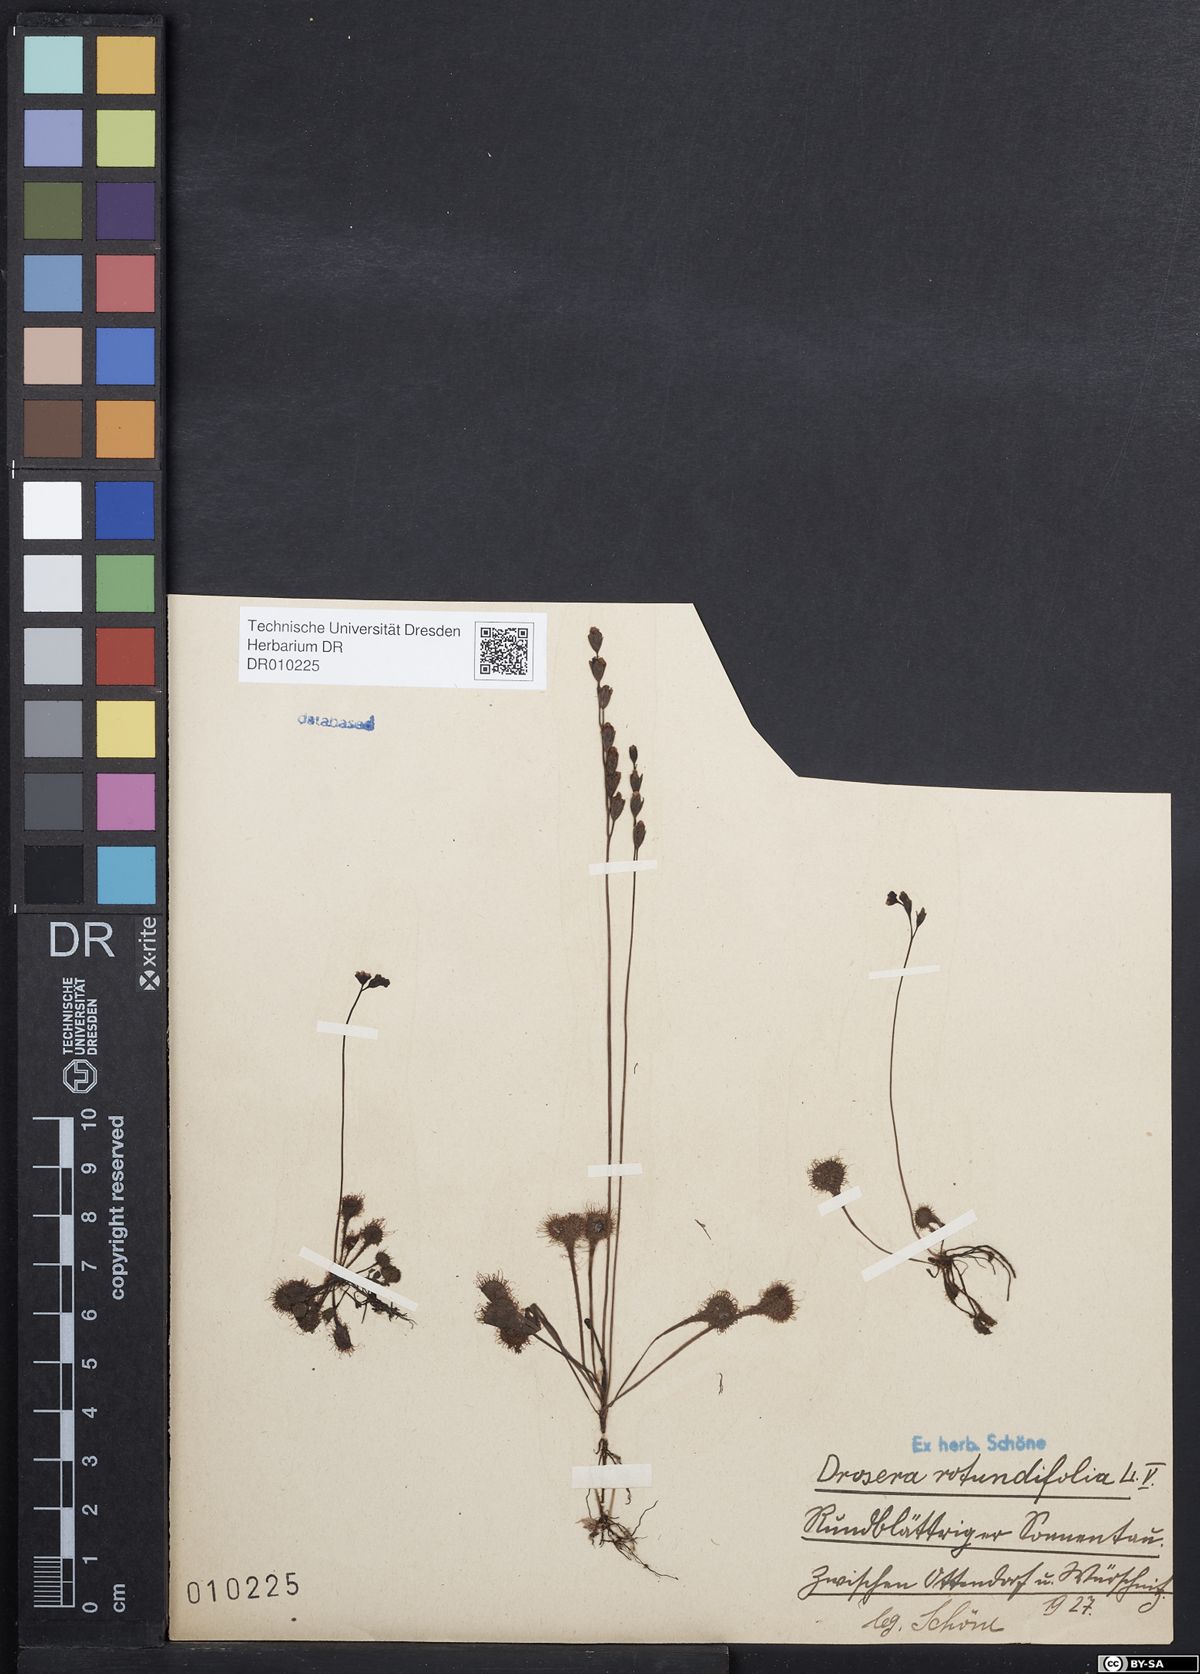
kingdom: Plantae
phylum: Tracheophyta
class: Magnoliopsida
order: Caryophyllales
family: Droseraceae
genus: Drosera
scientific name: Drosera rotundifolia
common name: Round-leaved sundew
